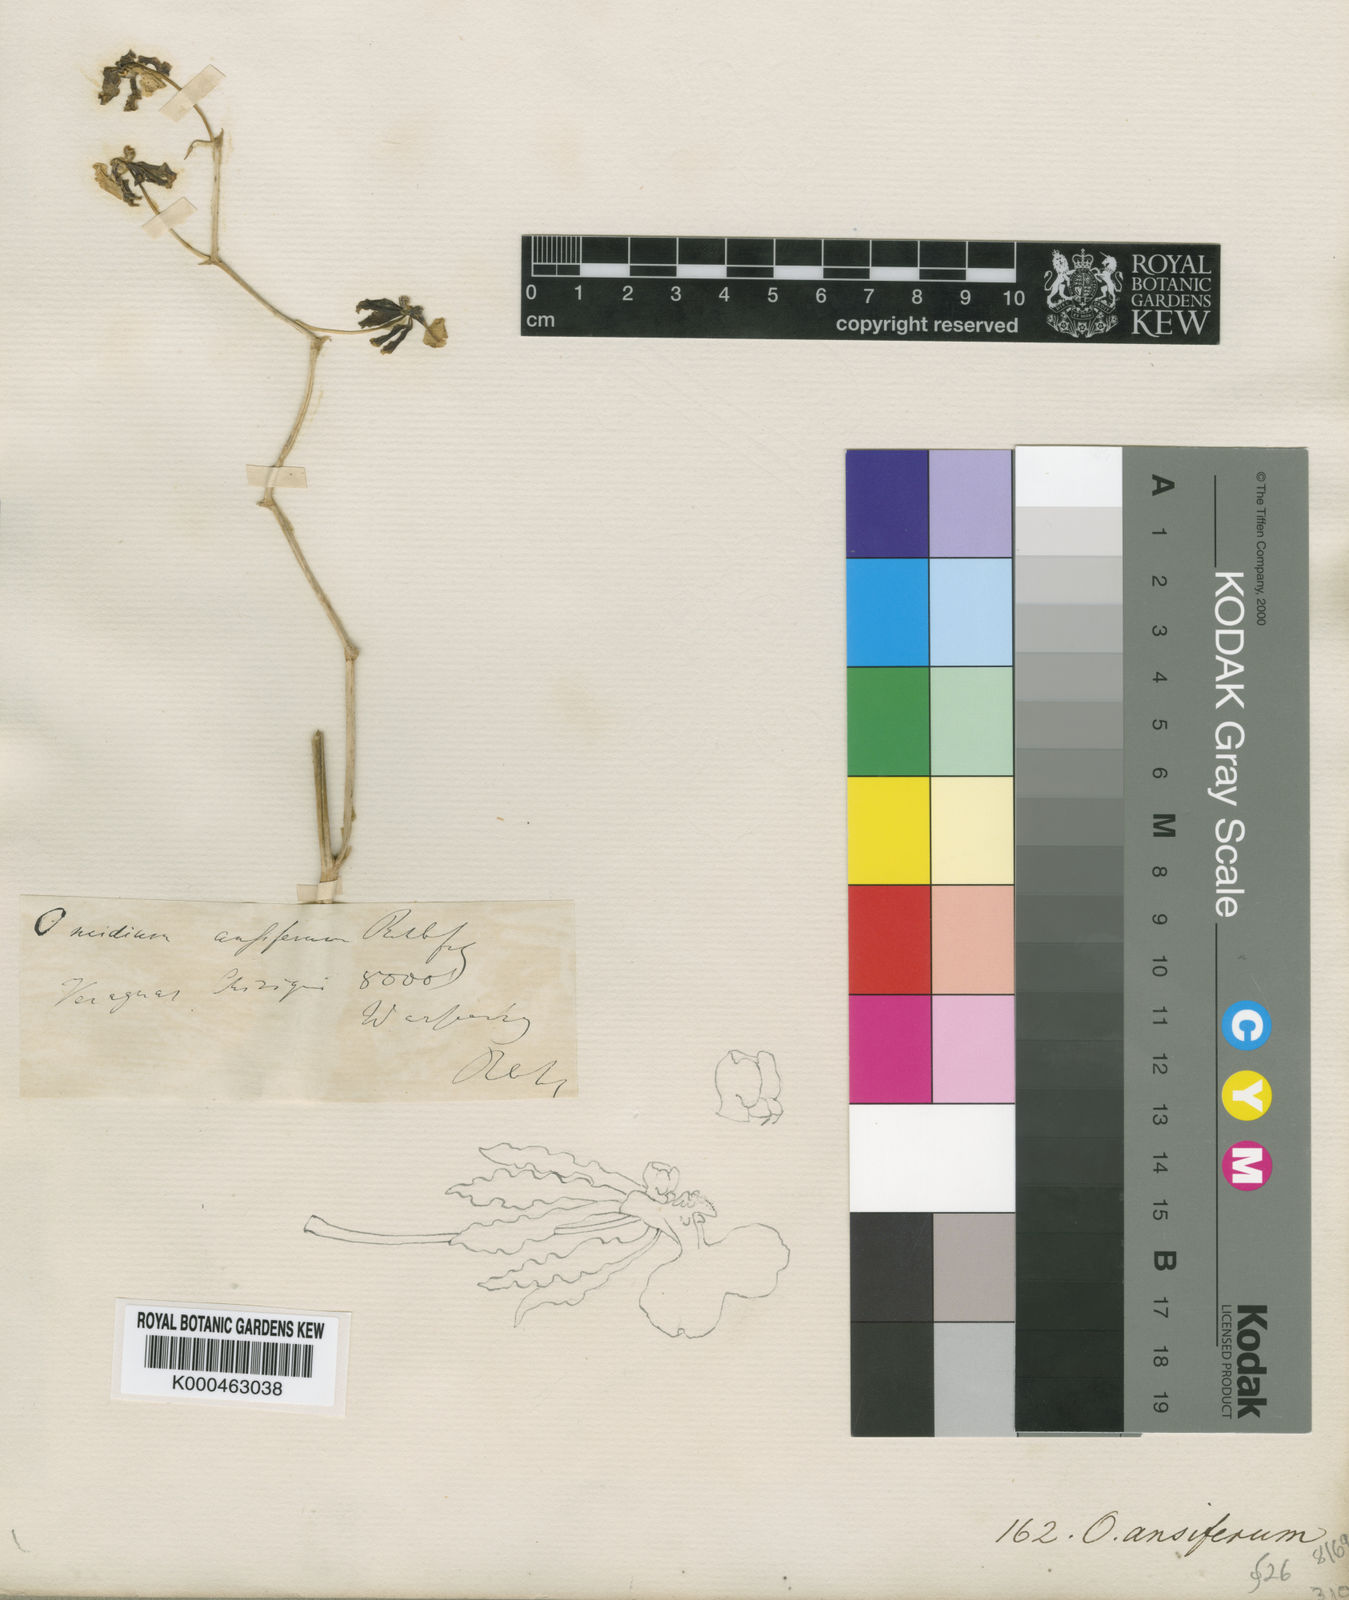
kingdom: Plantae
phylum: Tracheophyta
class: Liliopsida
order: Asparagales
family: Orchidaceae
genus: Oncidium
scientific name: Oncidium ansiferum
